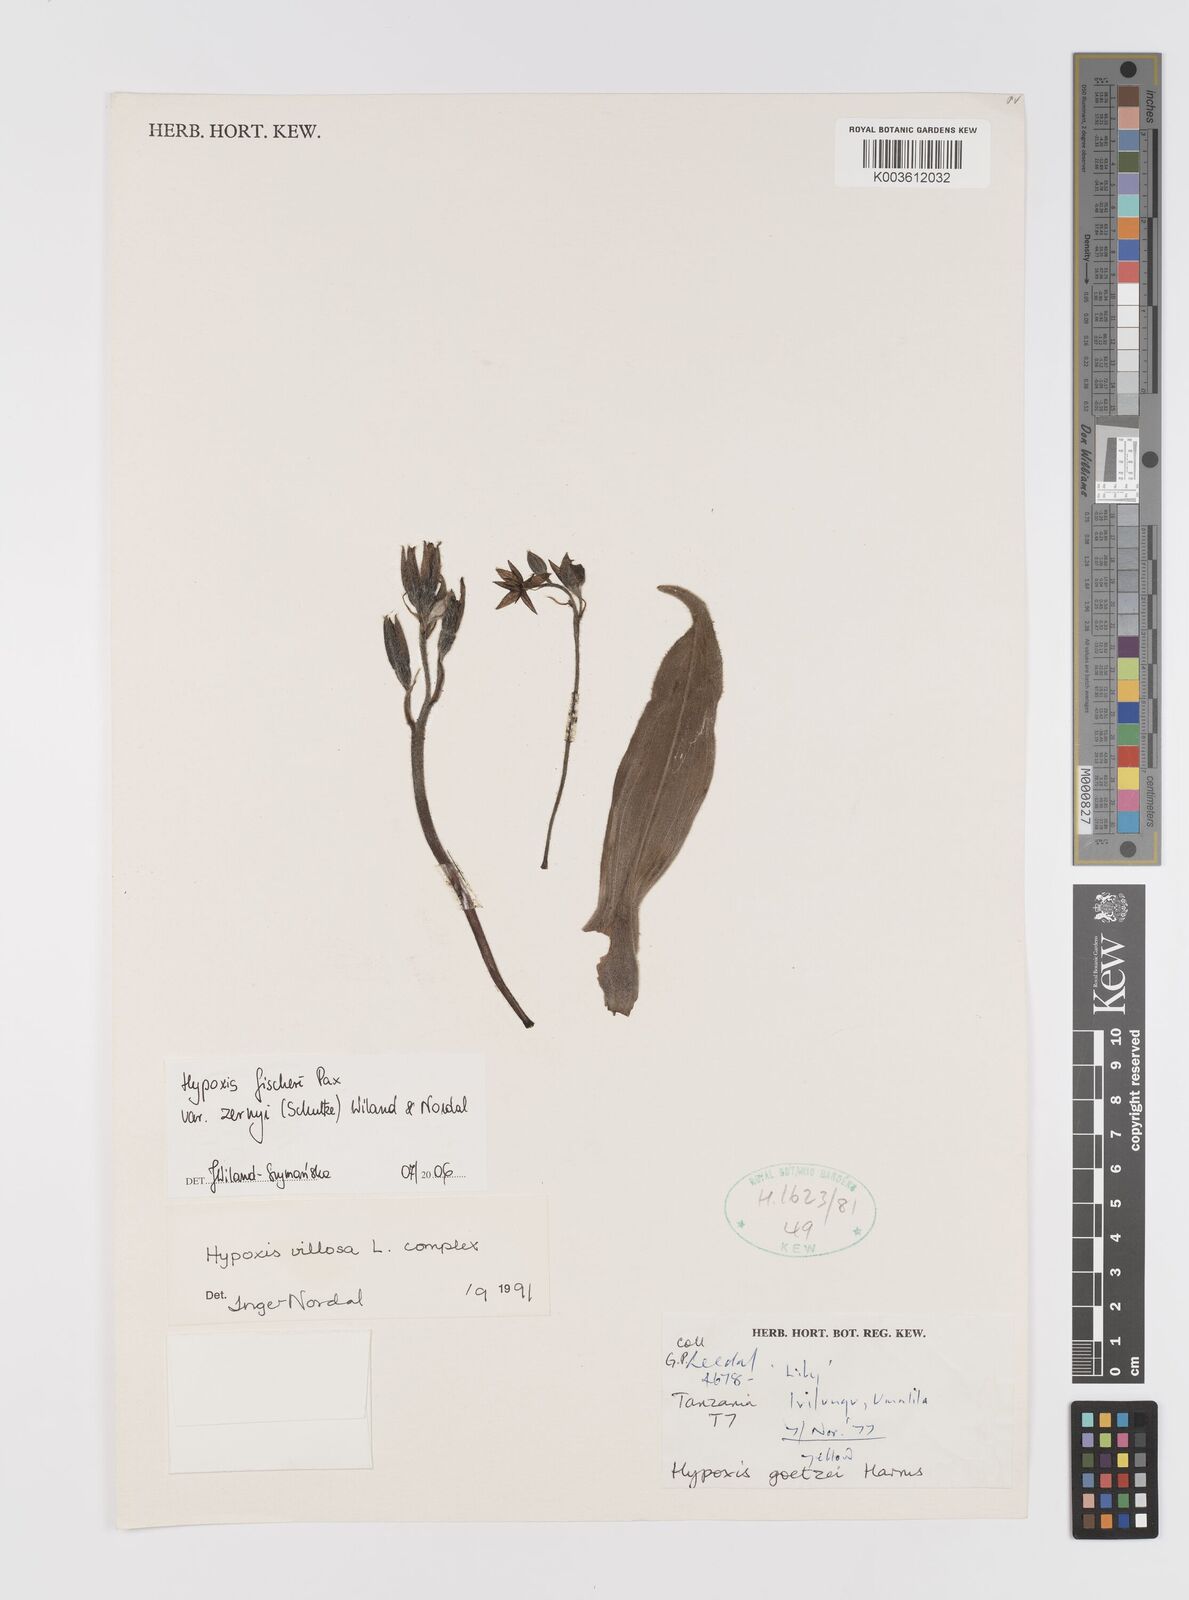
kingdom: Plantae
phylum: Tracheophyta
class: Liliopsida
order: Asparagales
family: Hypoxidaceae
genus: Hypoxis
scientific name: Hypoxis fischeri
